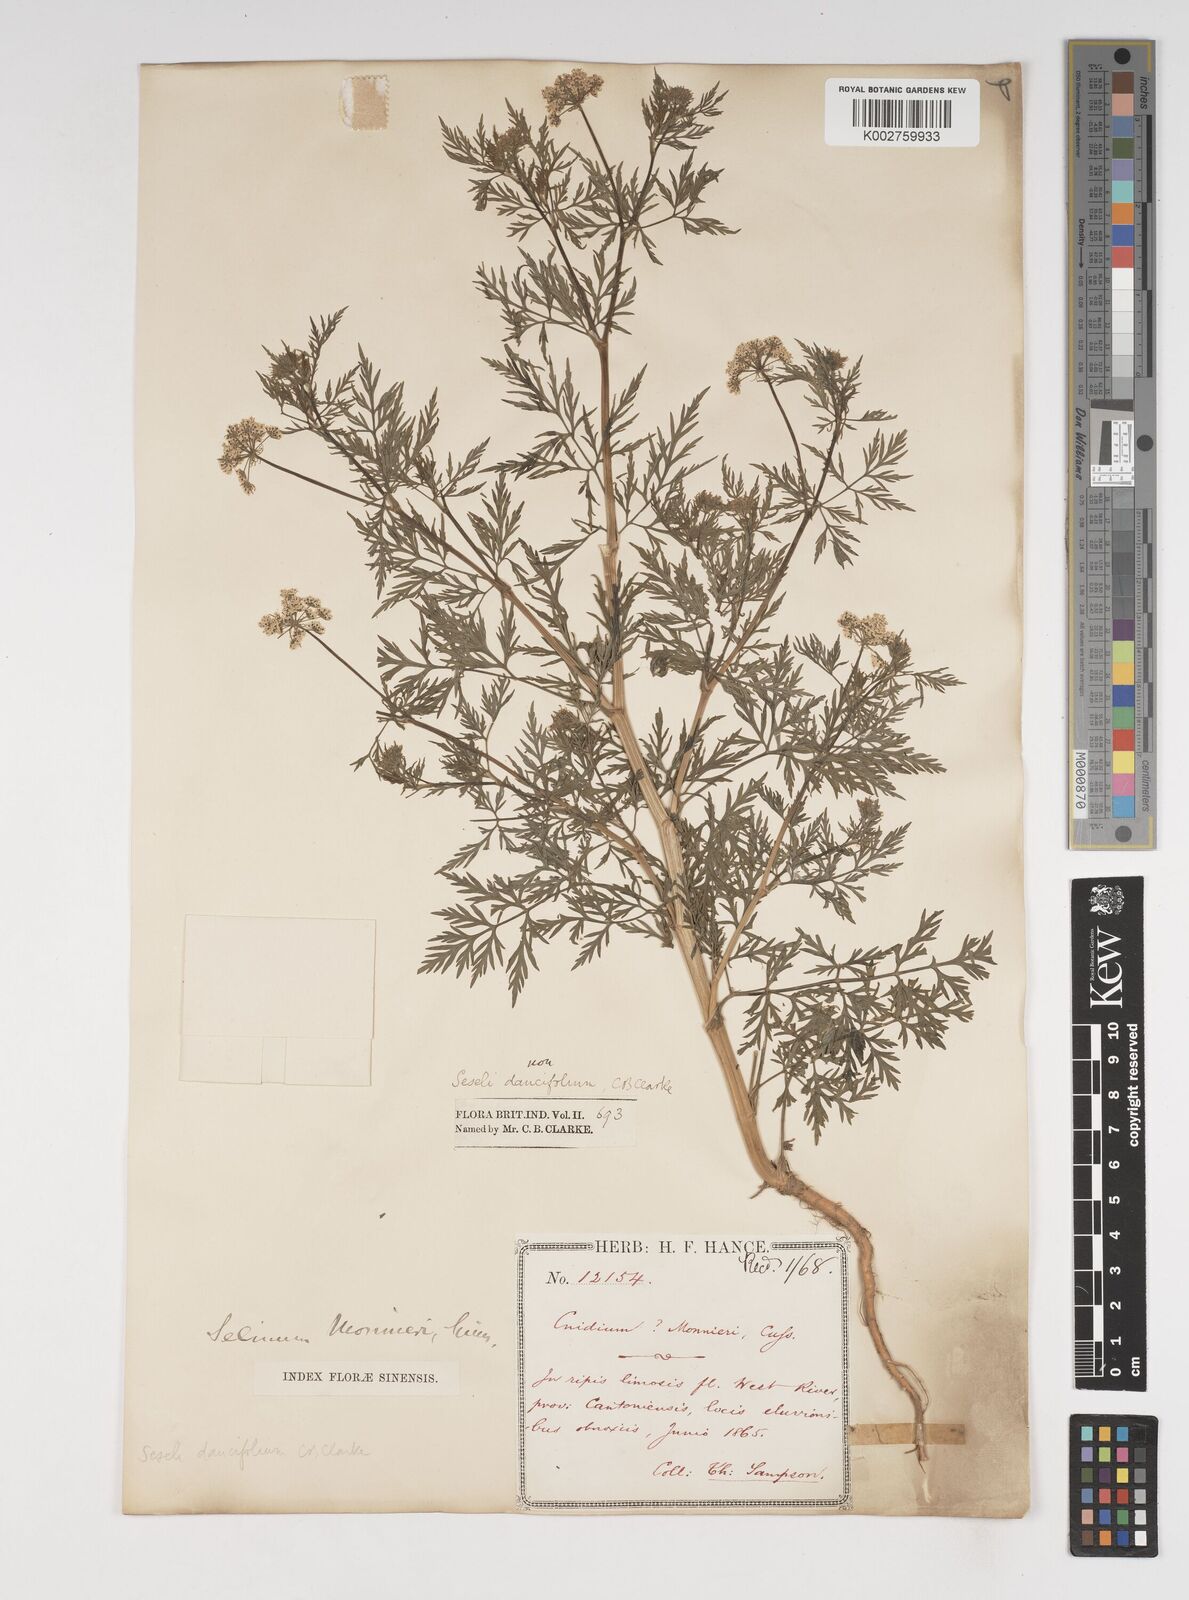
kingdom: Plantae
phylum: Tracheophyta
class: Magnoliopsida
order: Apiales
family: Apiaceae
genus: Cnidium
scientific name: Cnidium monnieri
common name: Monnier's snowparsley
